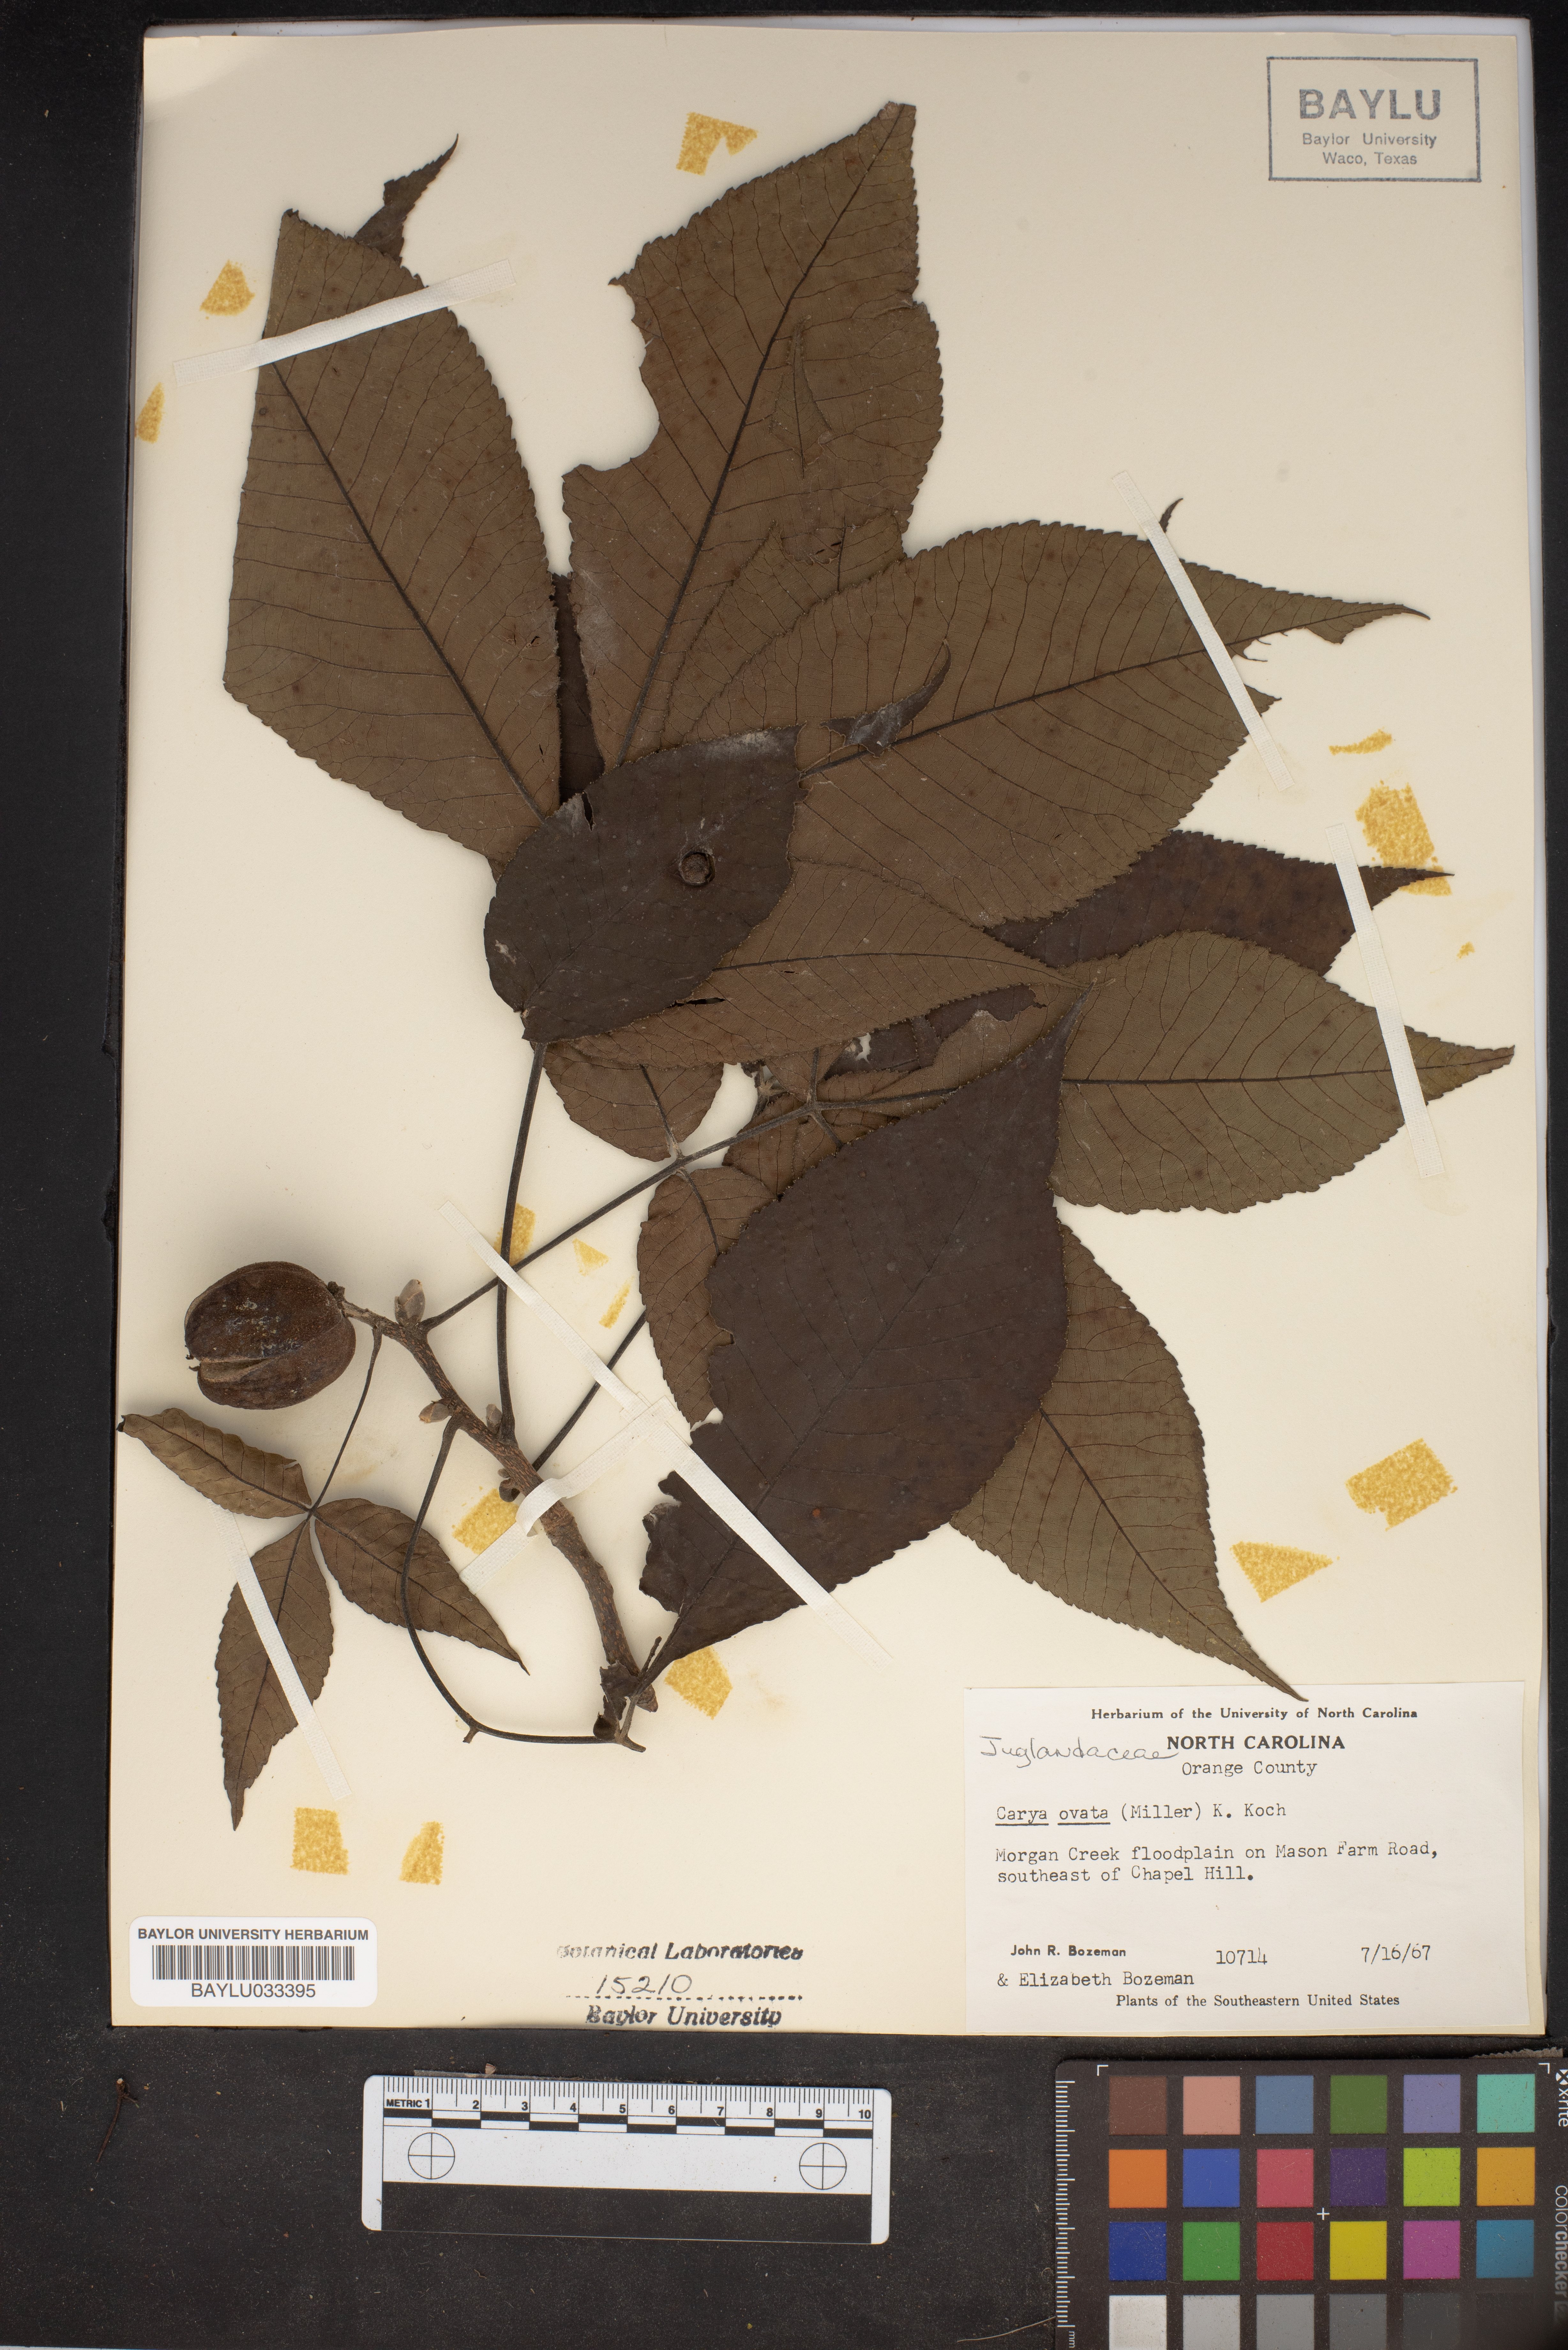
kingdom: Plantae
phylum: Tracheophyta
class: Magnoliopsida
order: Fagales
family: Juglandaceae
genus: Carya
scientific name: Carya ovata
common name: Shagbark hickory
